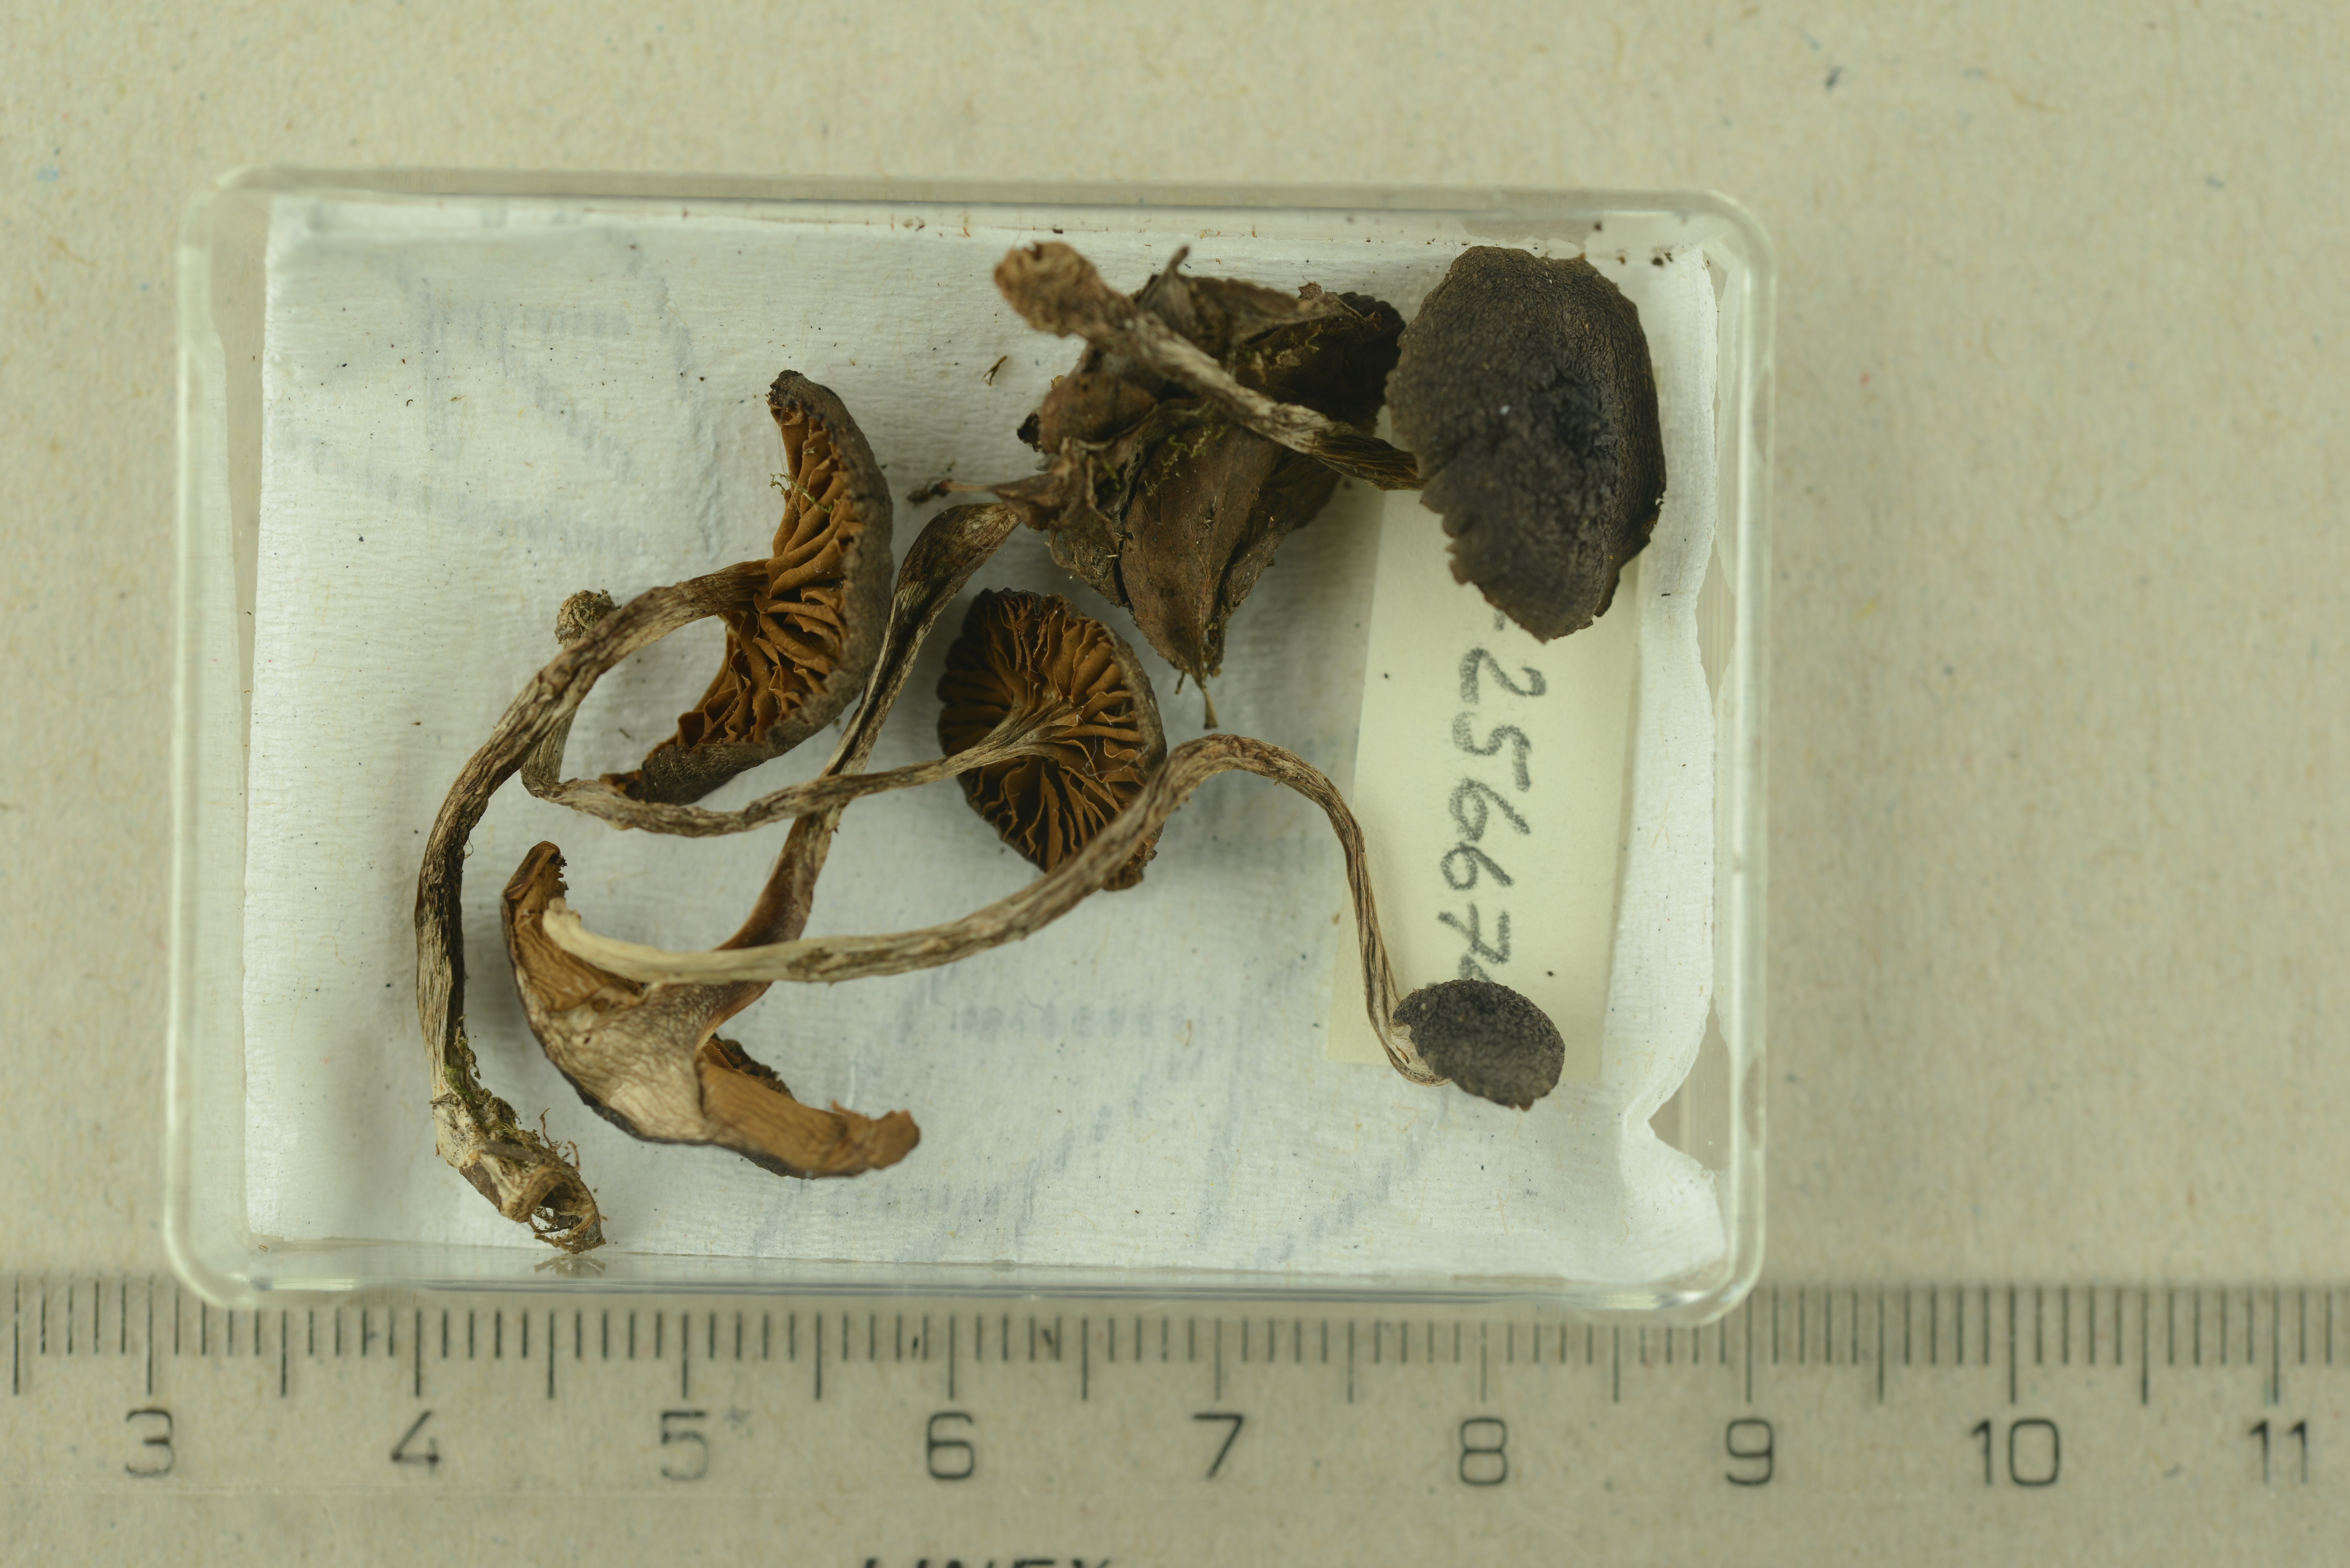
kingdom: Fungi
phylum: Basidiomycota
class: Agaricomycetes
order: Agaricales
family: Cortinariaceae
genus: Cortinarius
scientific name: Cortinarius depressus
